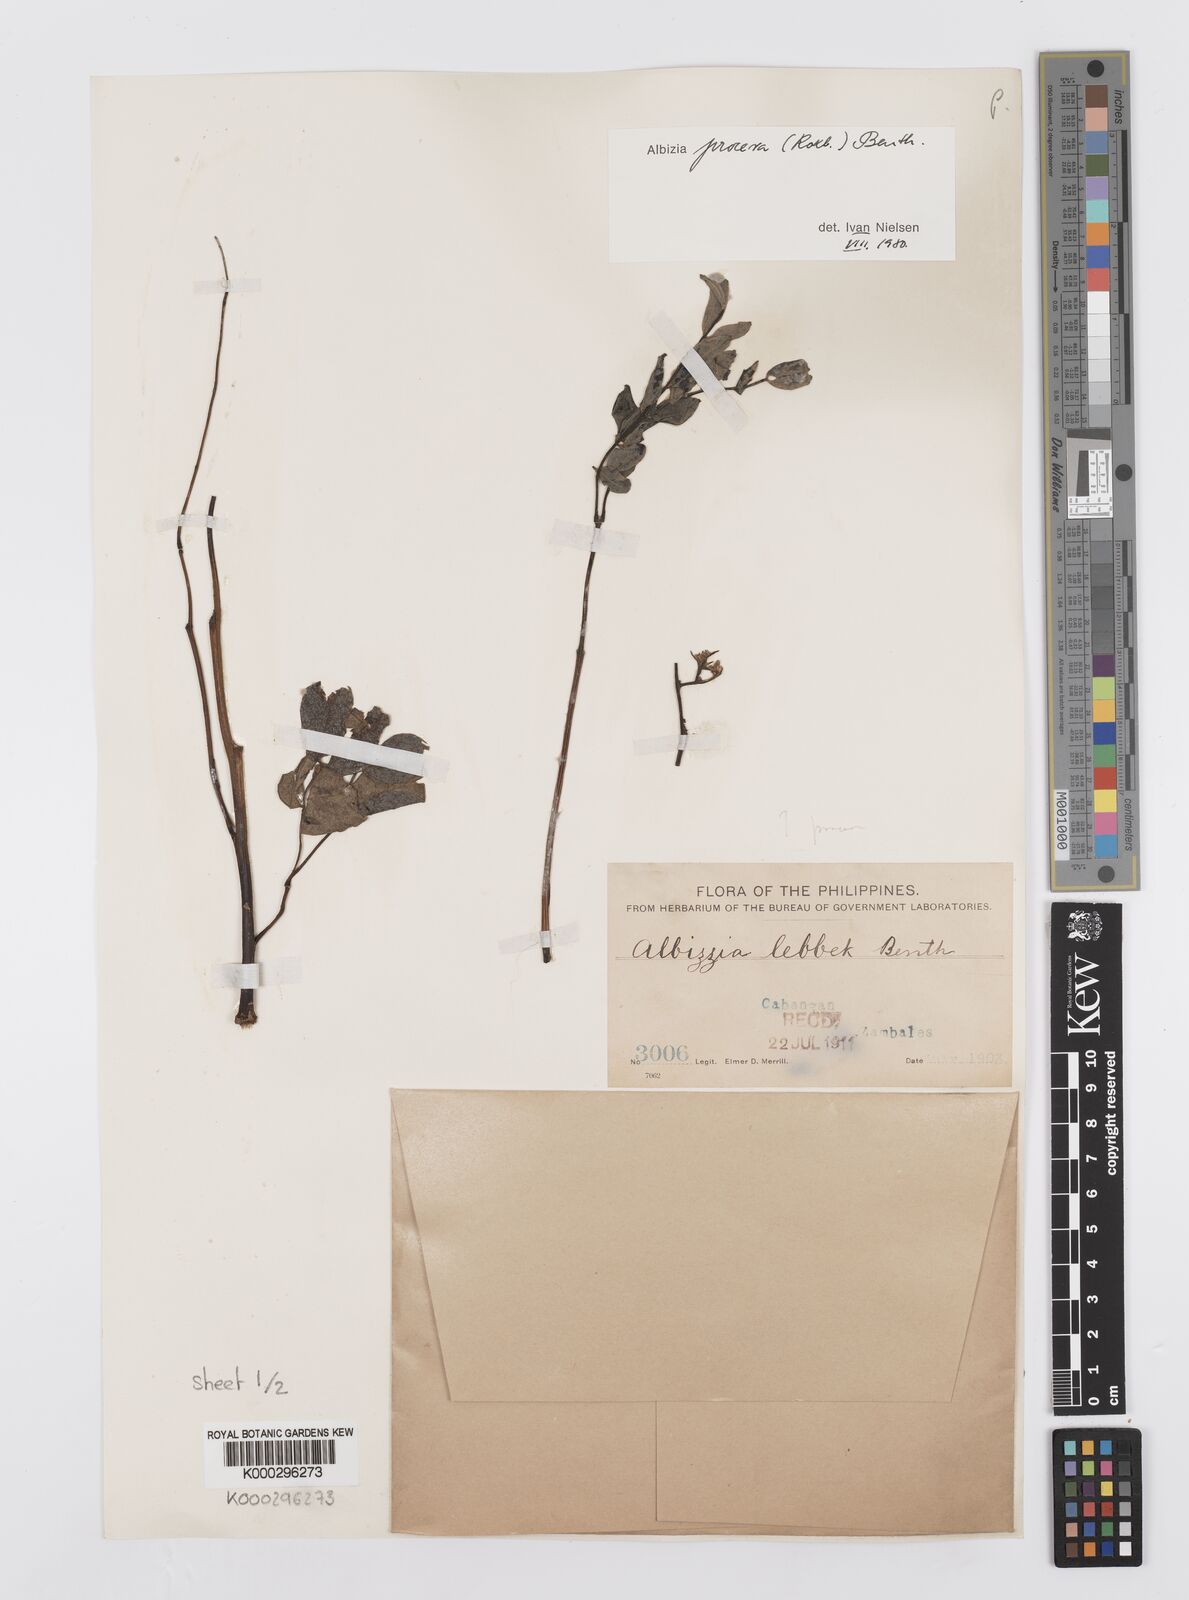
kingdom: Plantae
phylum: Tracheophyta
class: Magnoliopsida
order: Fabales
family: Fabaceae
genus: Albizia
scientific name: Albizia procera
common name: Tall albizia
